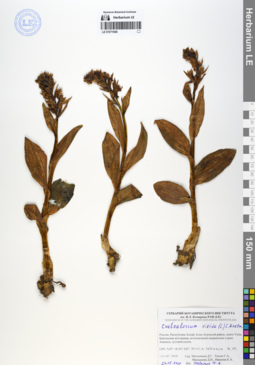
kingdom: Plantae
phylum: Tracheophyta
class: Liliopsida
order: Asparagales
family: Orchidaceae
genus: Dactylorhiza
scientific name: Dactylorhiza viridis
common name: Longbract frog orchid
